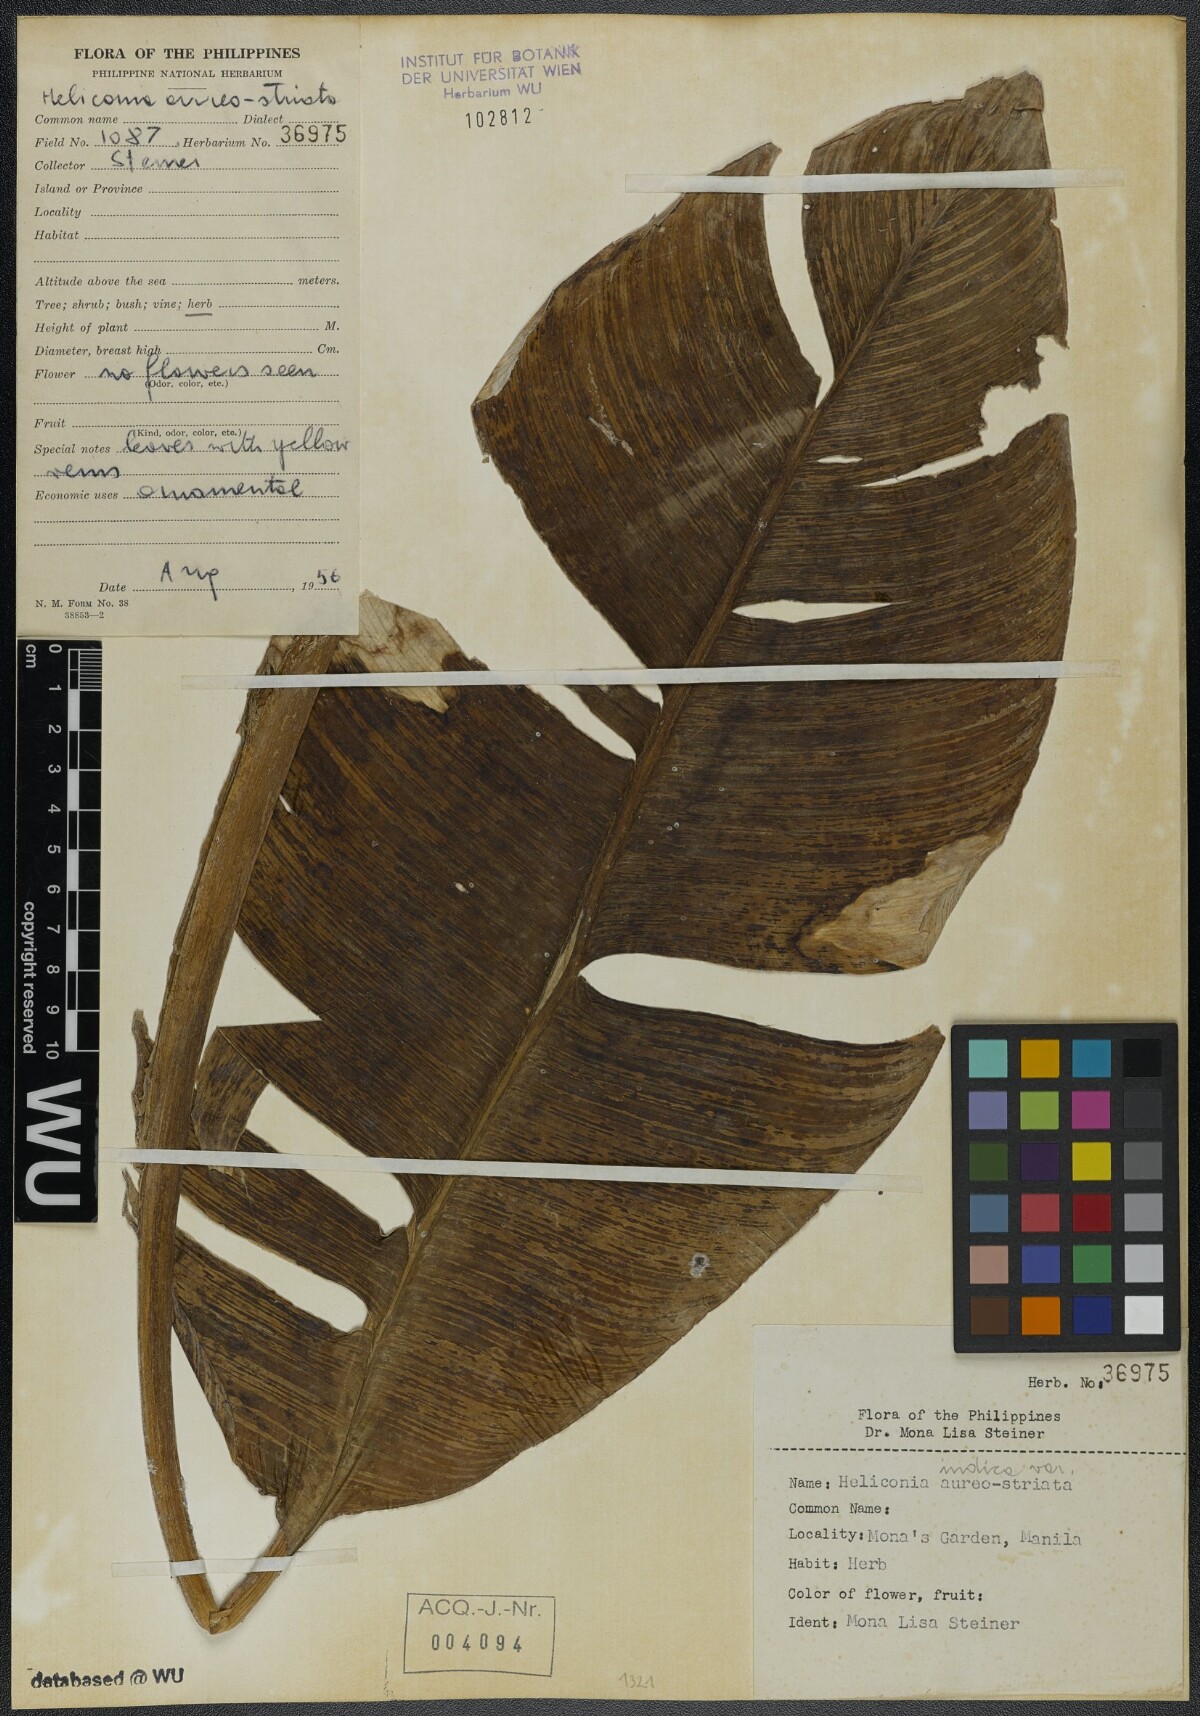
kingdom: Plantae
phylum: Tracheophyta
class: Liliopsida
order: Zingiberales
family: Heliconiaceae
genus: Heliconia
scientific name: Heliconia indica
